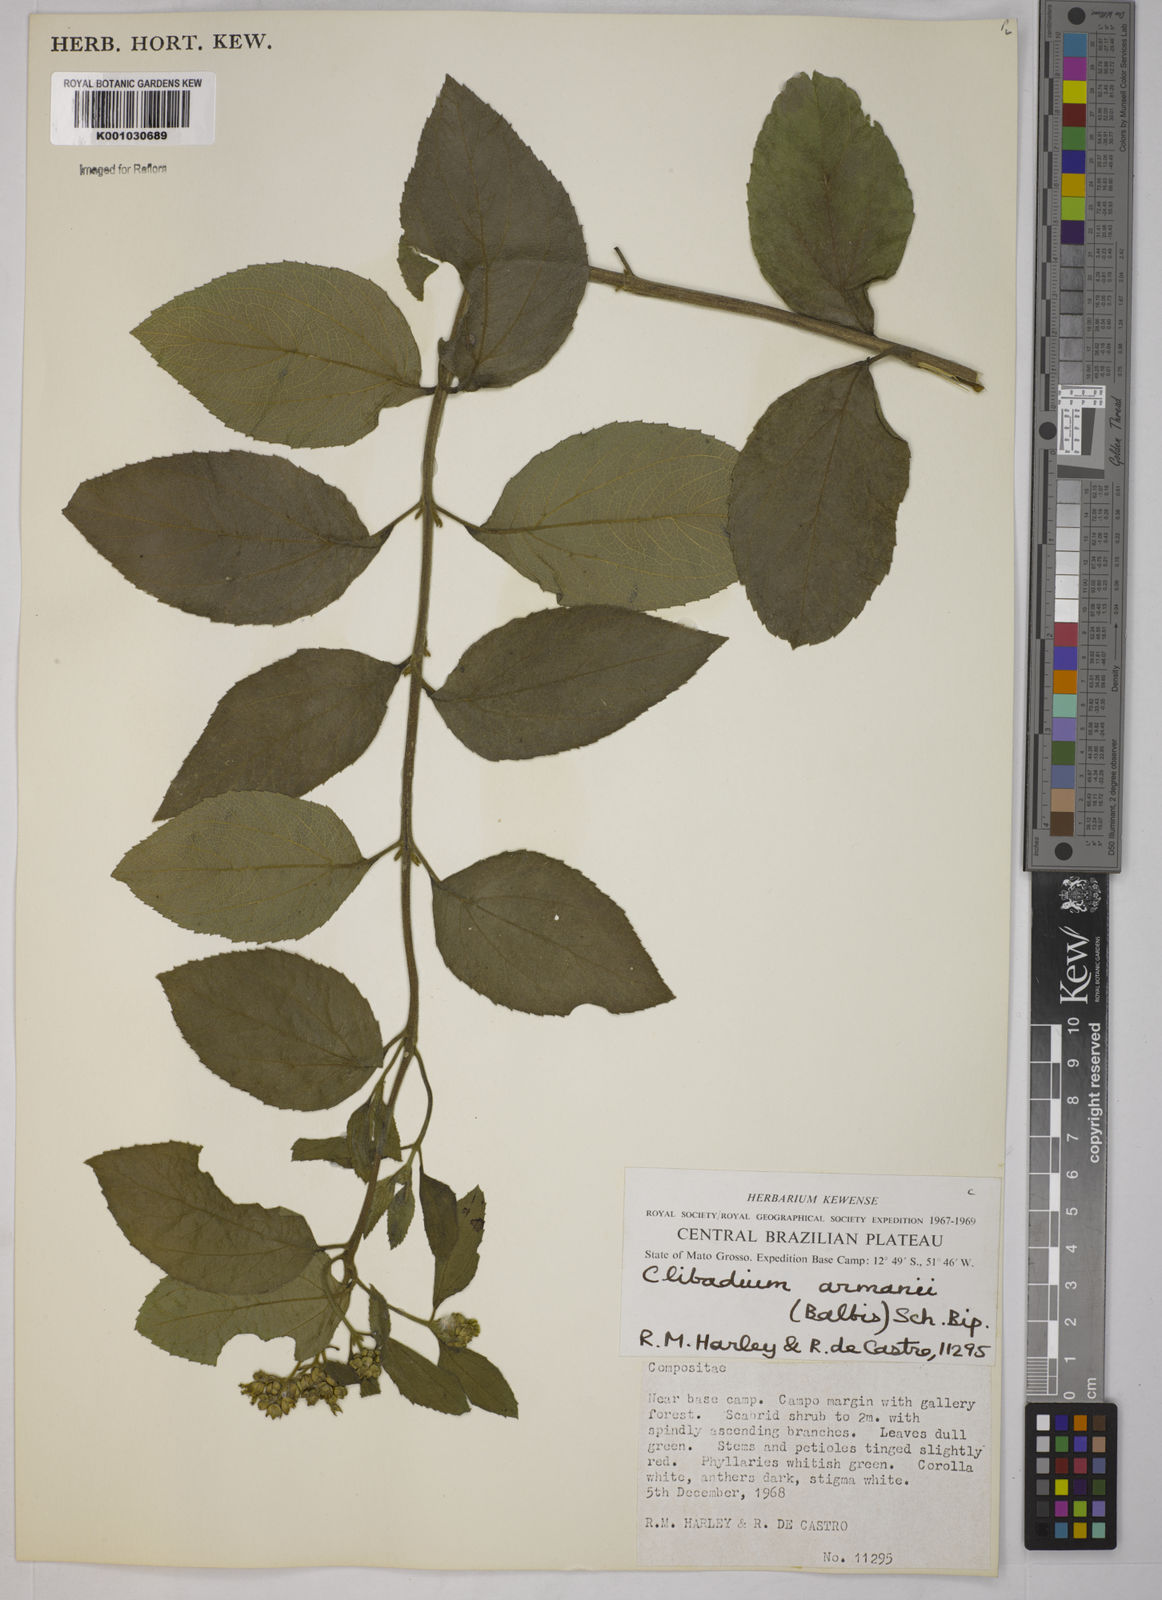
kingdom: Plantae
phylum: Tracheophyta
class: Magnoliopsida
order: Asterales
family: Asteraceae
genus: Clibadium
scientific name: Clibadium armanii
